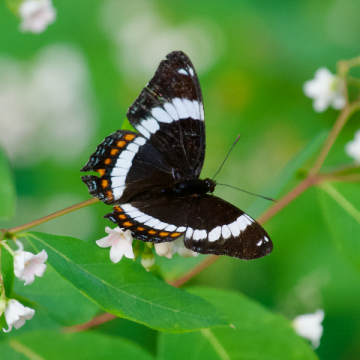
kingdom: Animalia
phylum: Arthropoda
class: Insecta
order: Lepidoptera
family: Nymphalidae
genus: Limenitis
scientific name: Limenitis arthemis
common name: Red-spotted Admiral
